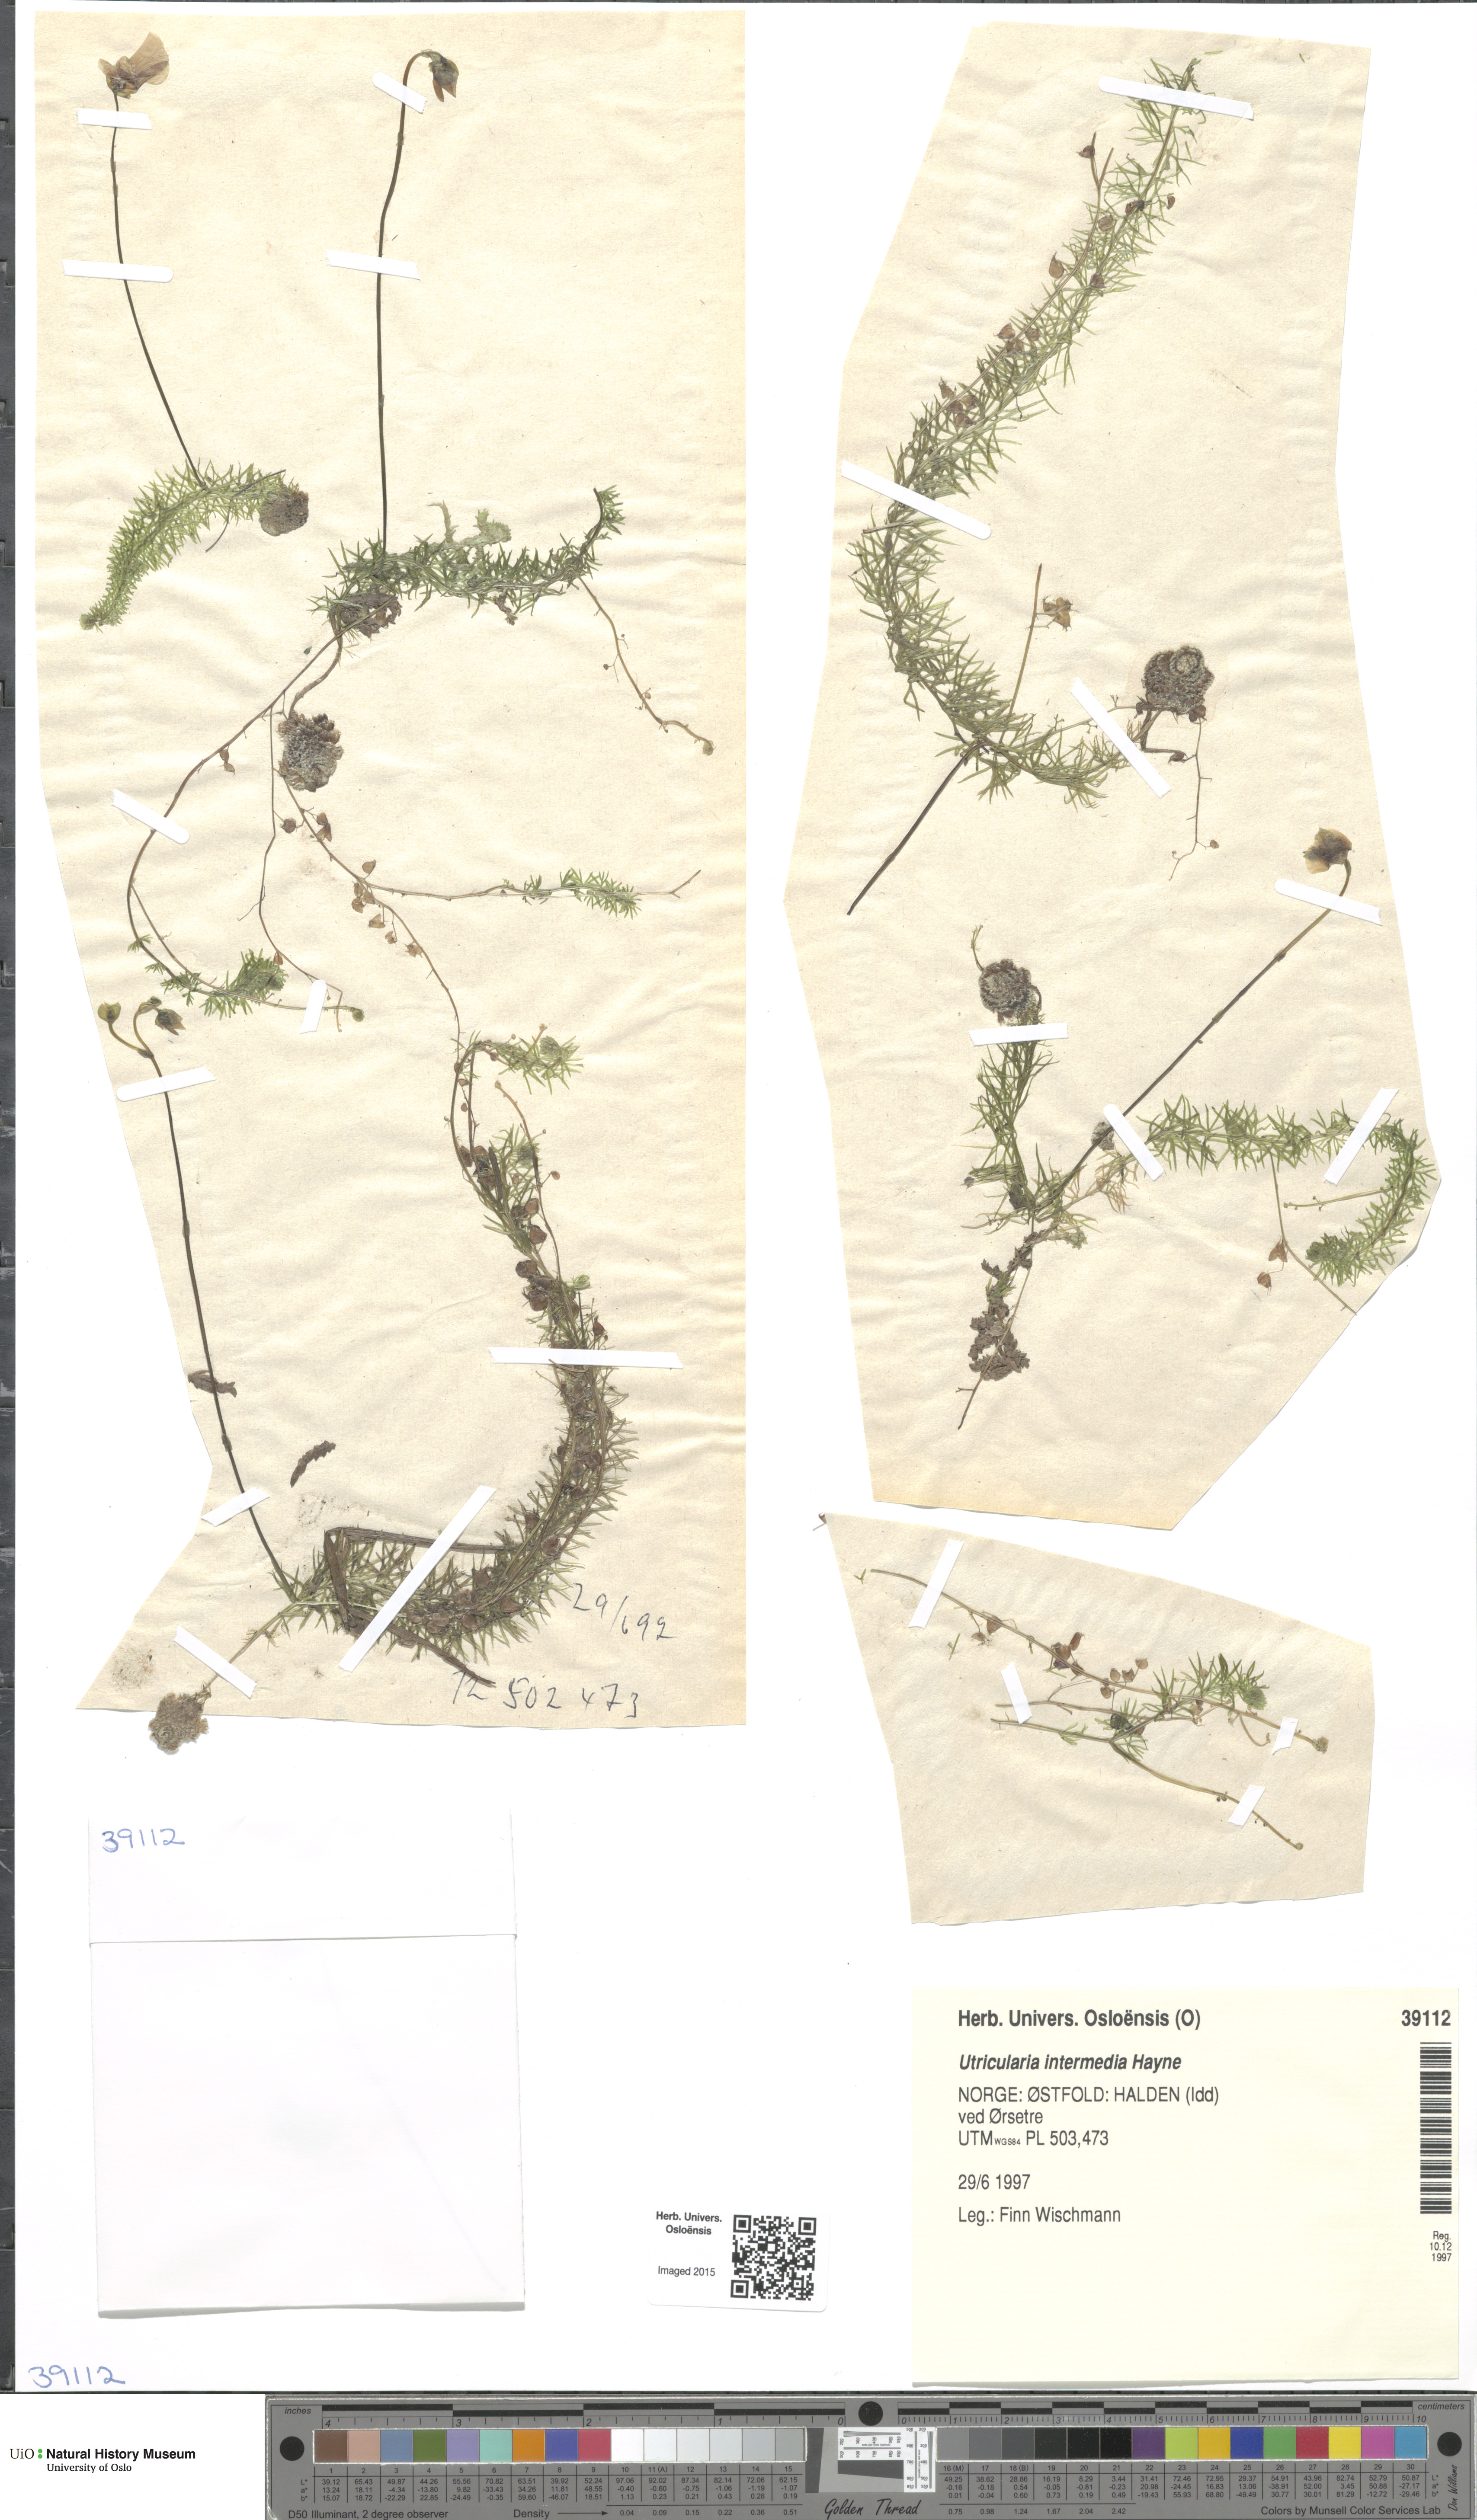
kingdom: Plantae
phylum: Tracheophyta
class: Magnoliopsida
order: Lamiales
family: Lentibulariaceae
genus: Utricularia
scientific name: Utricularia intermedia
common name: Intermediate bladderwort
